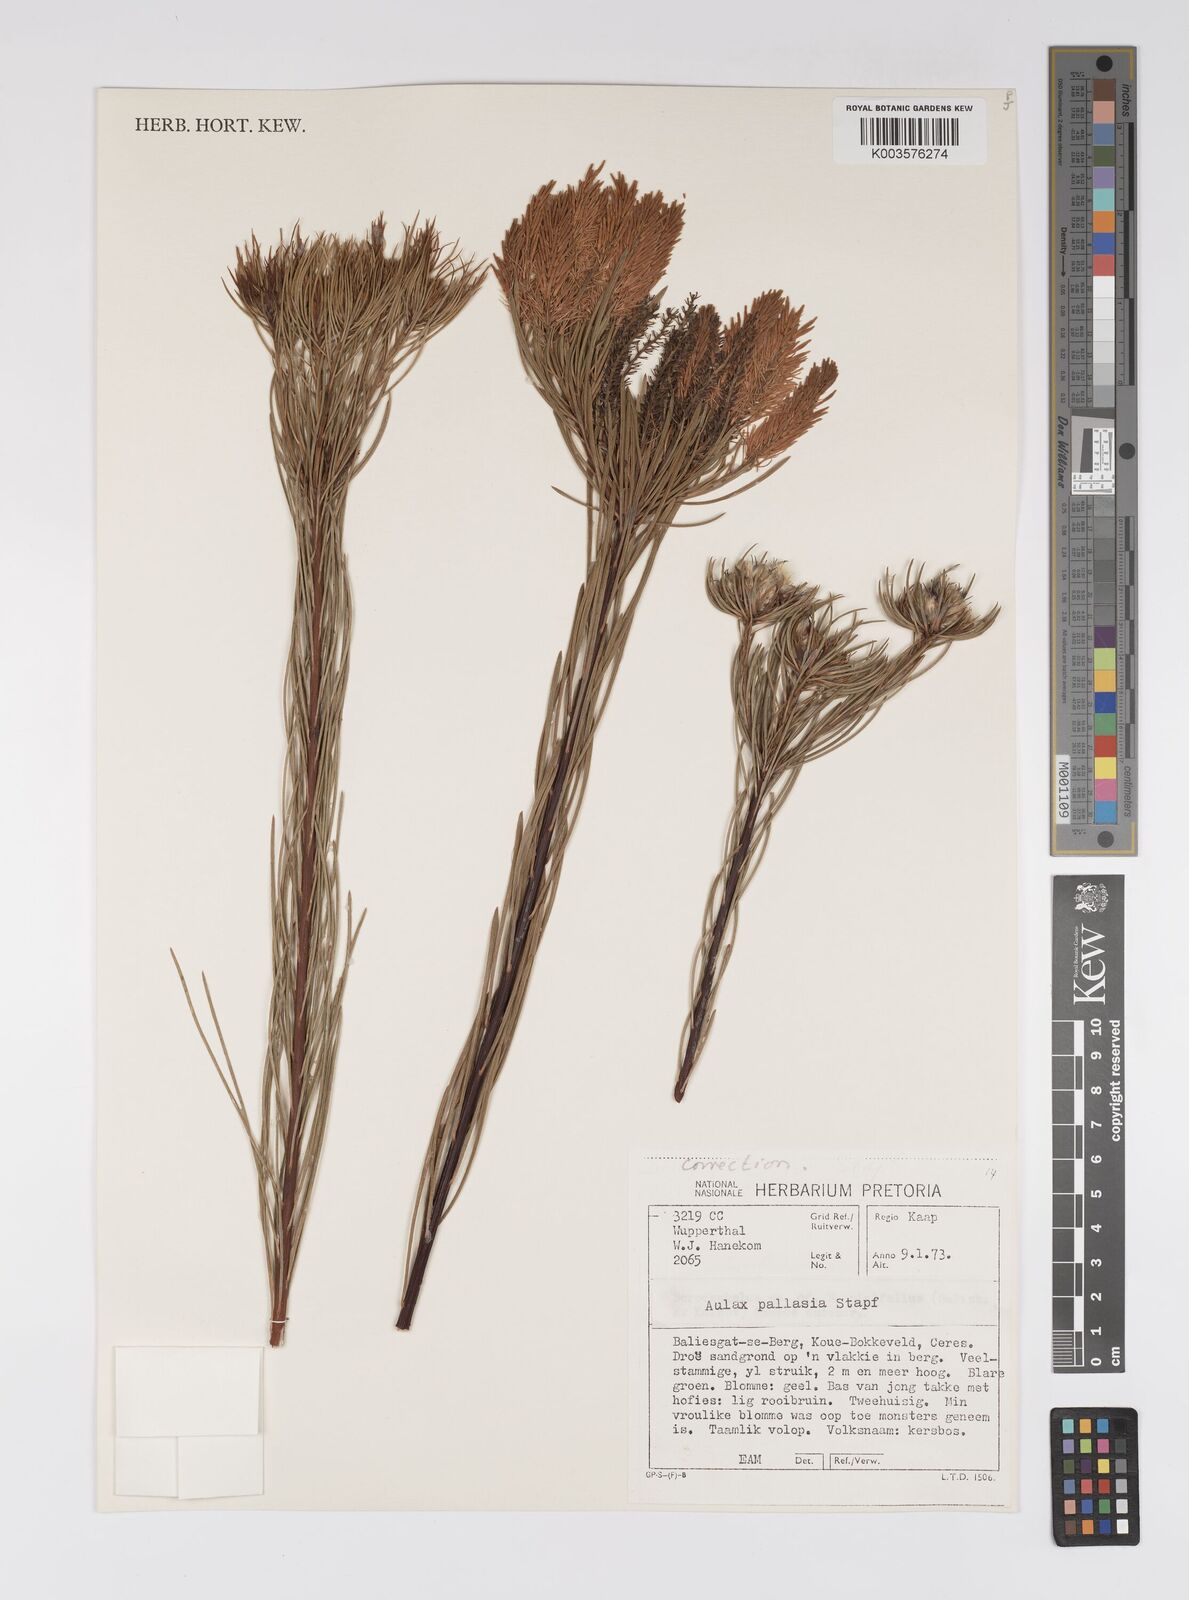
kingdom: Plantae
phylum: Tracheophyta
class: Magnoliopsida
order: Proteales
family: Proteaceae
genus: Aulax
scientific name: Aulax pallasia
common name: Needle-leaf featherbush
